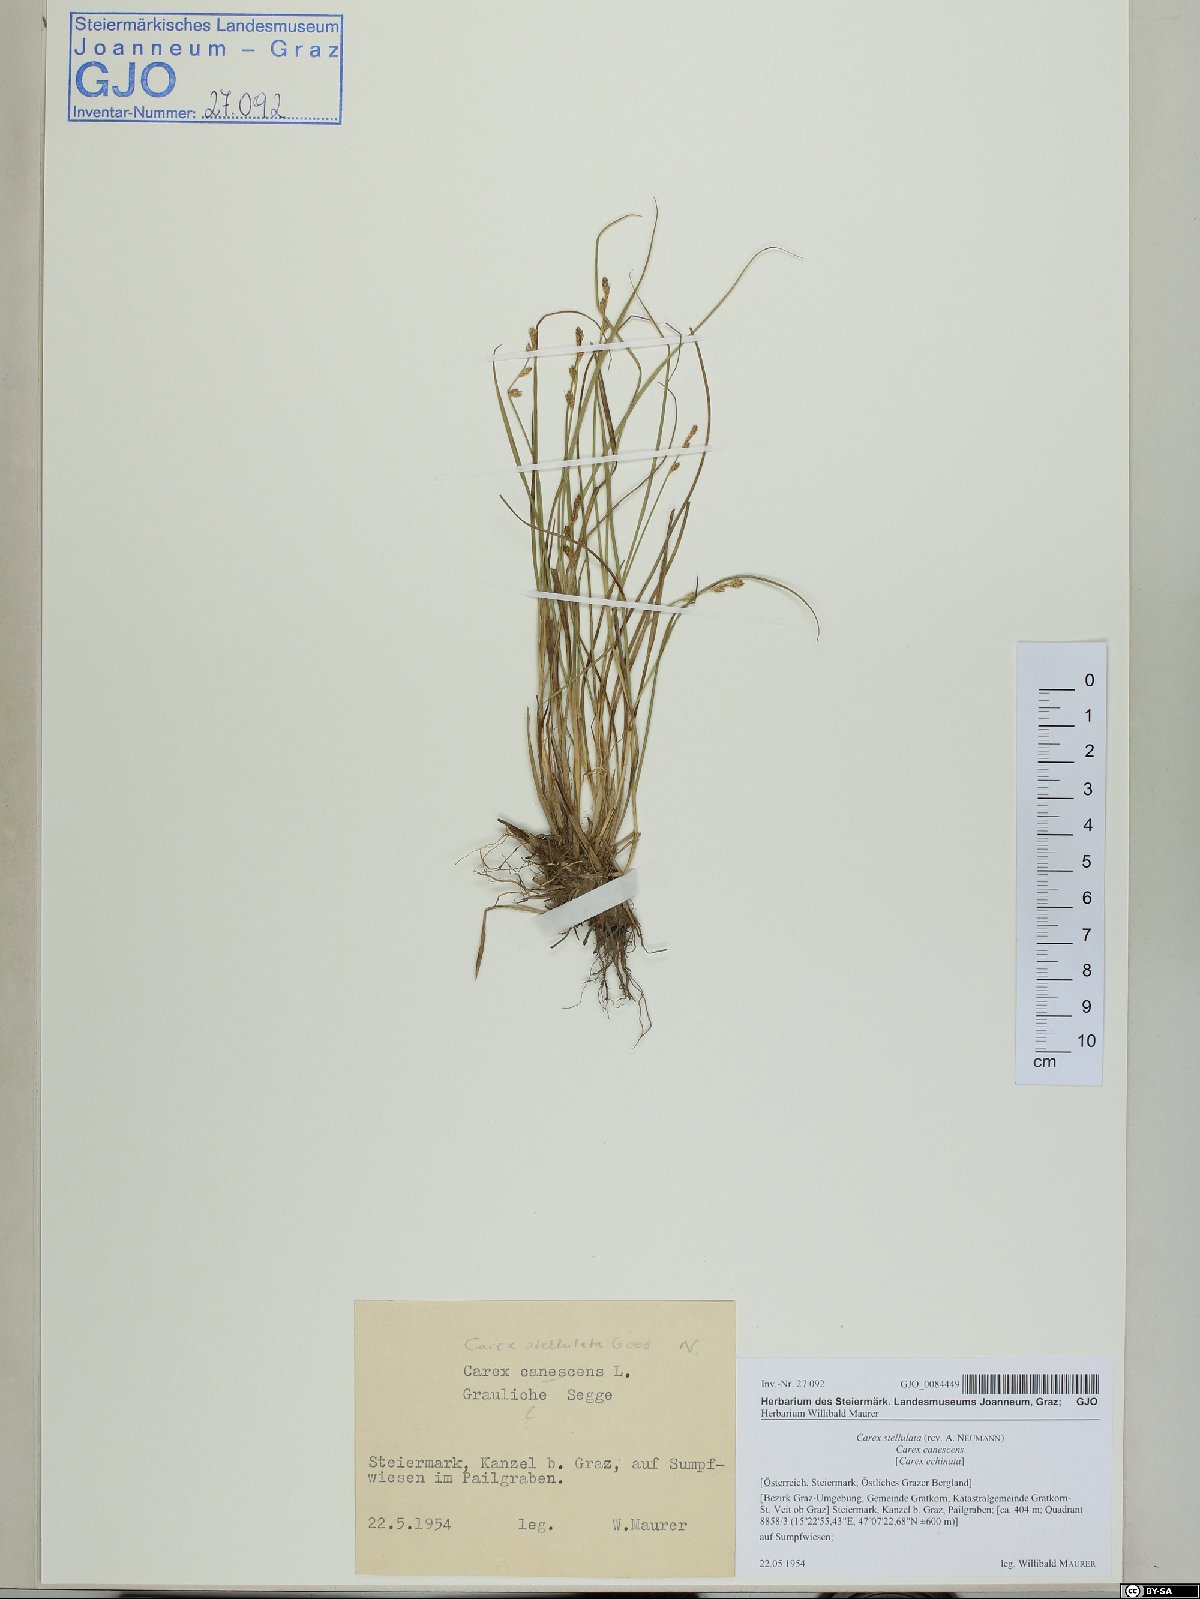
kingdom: Plantae
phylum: Tracheophyta
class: Liliopsida
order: Poales
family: Cyperaceae
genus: Carex
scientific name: Carex echinata
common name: Star sedge
